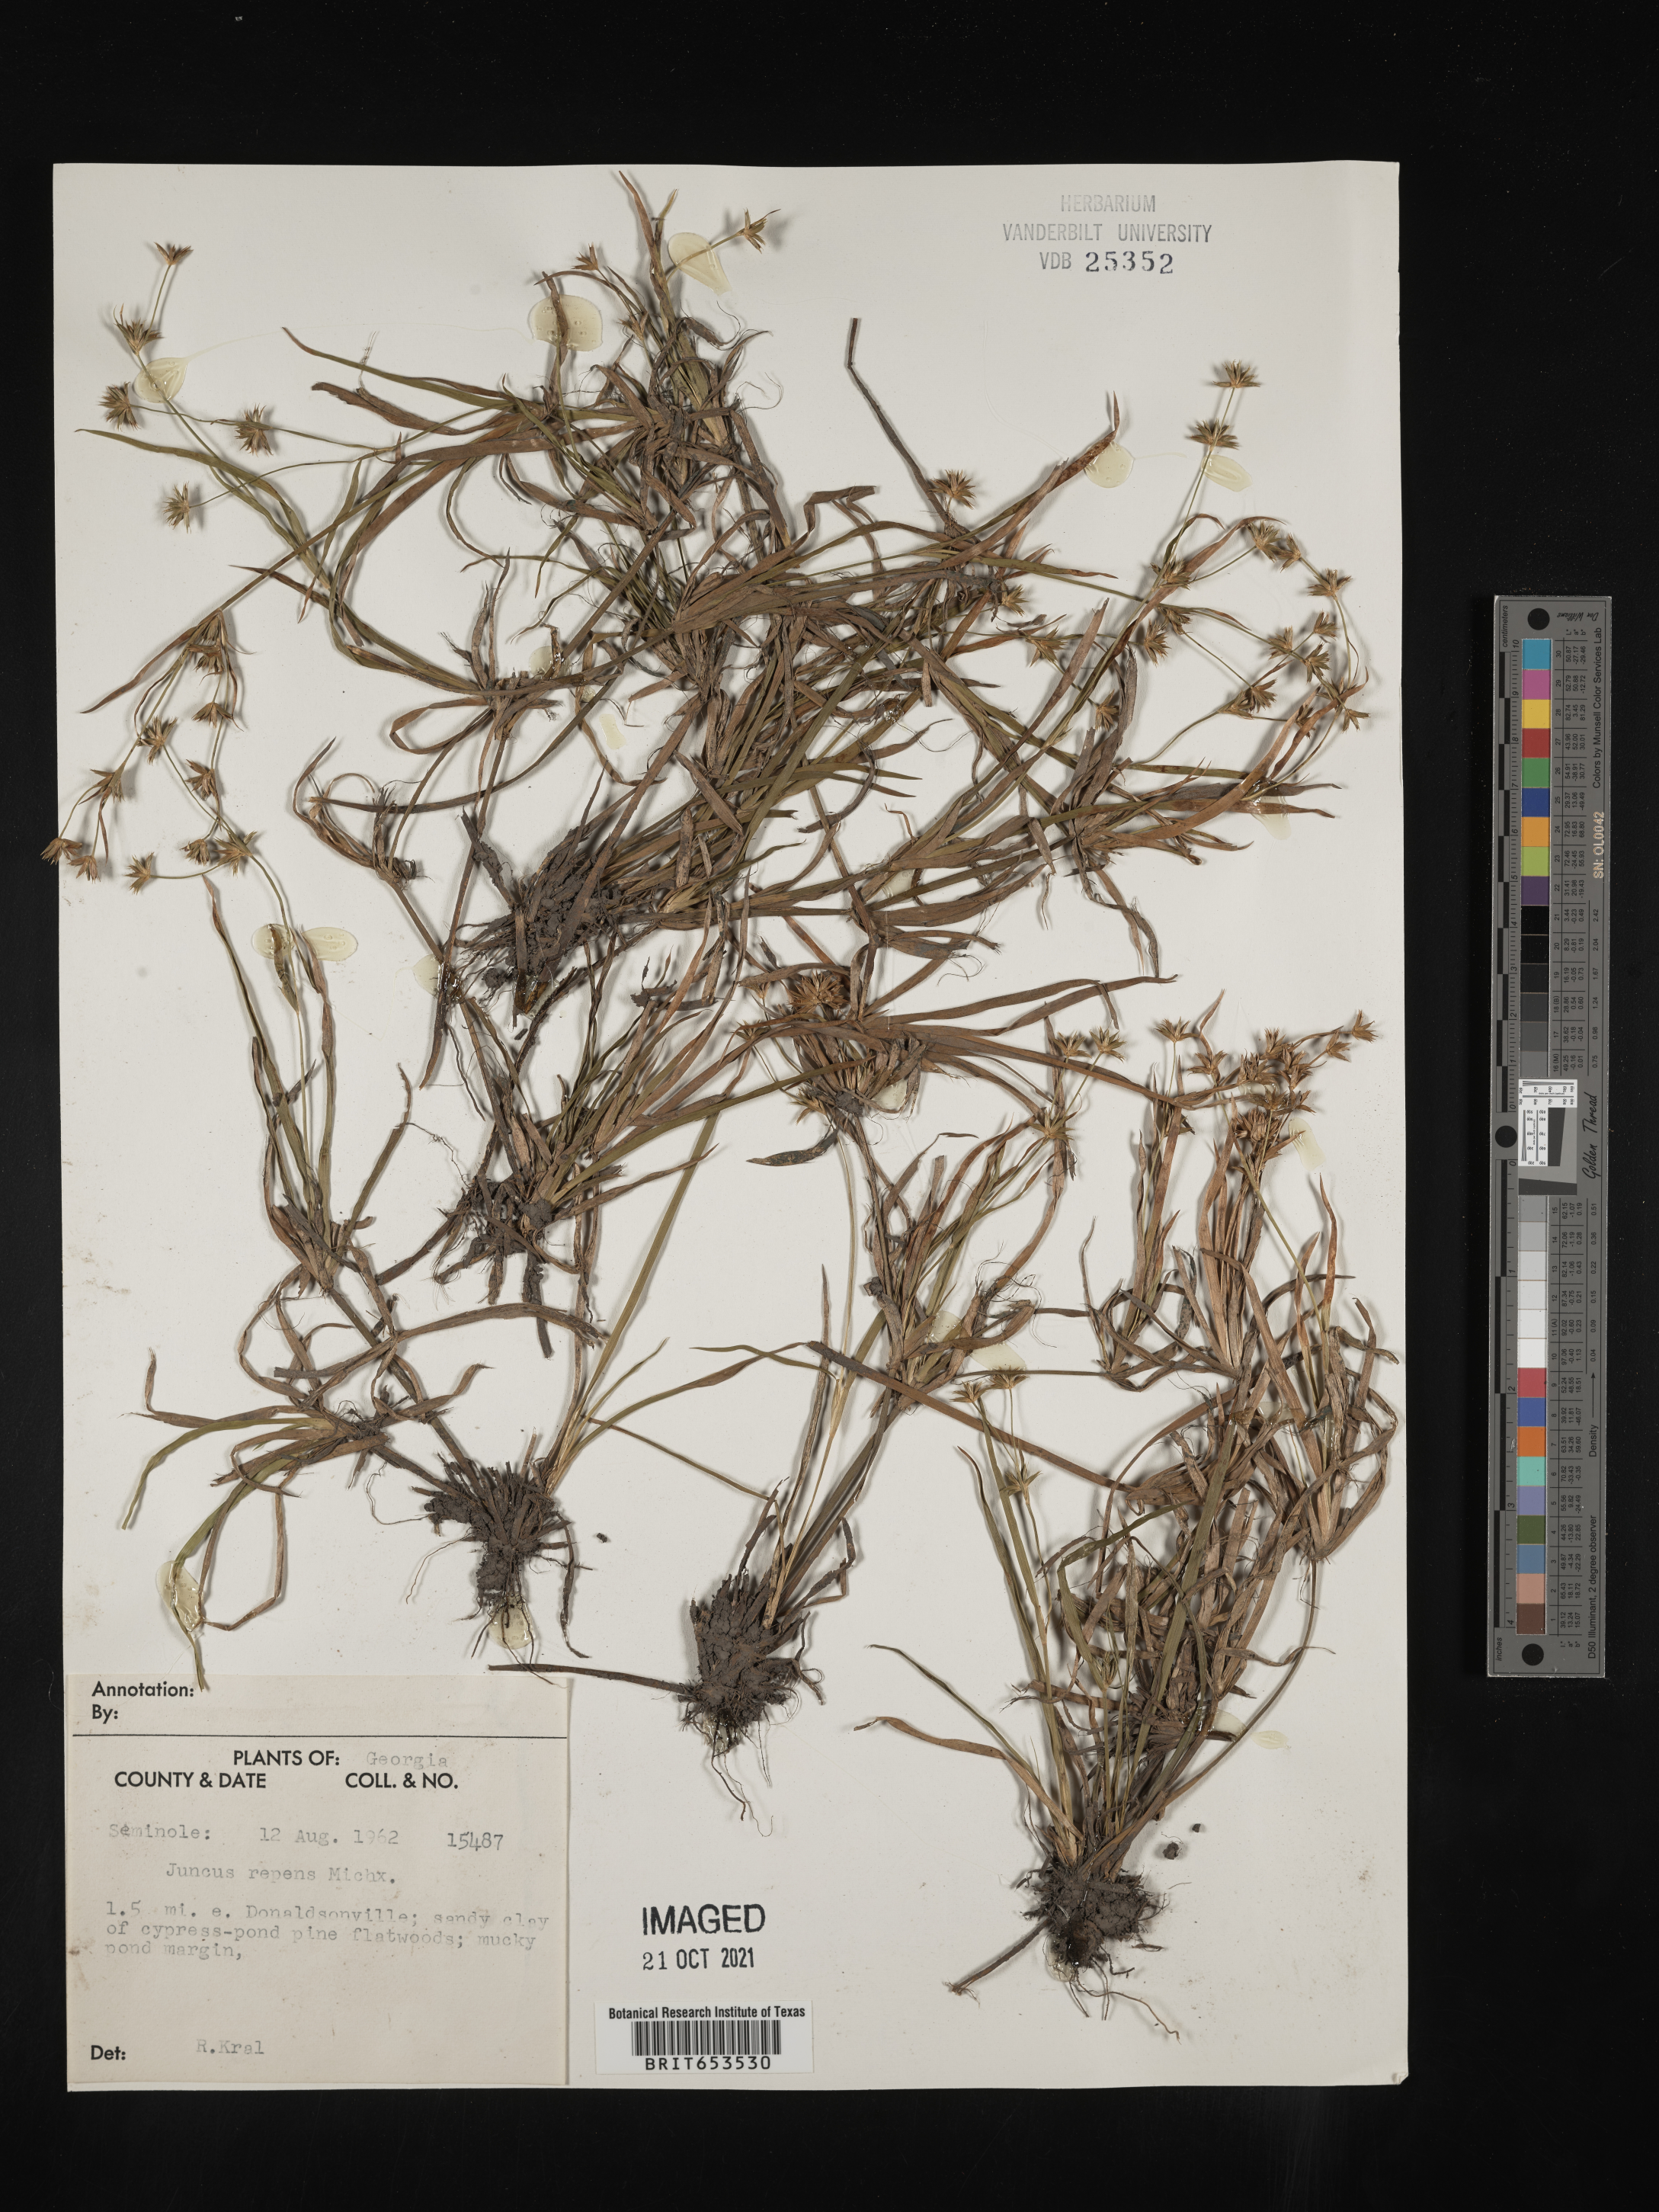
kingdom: Plantae
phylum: Tracheophyta
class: Liliopsida
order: Poales
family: Juncaceae
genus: Juncus
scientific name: Juncus repens
